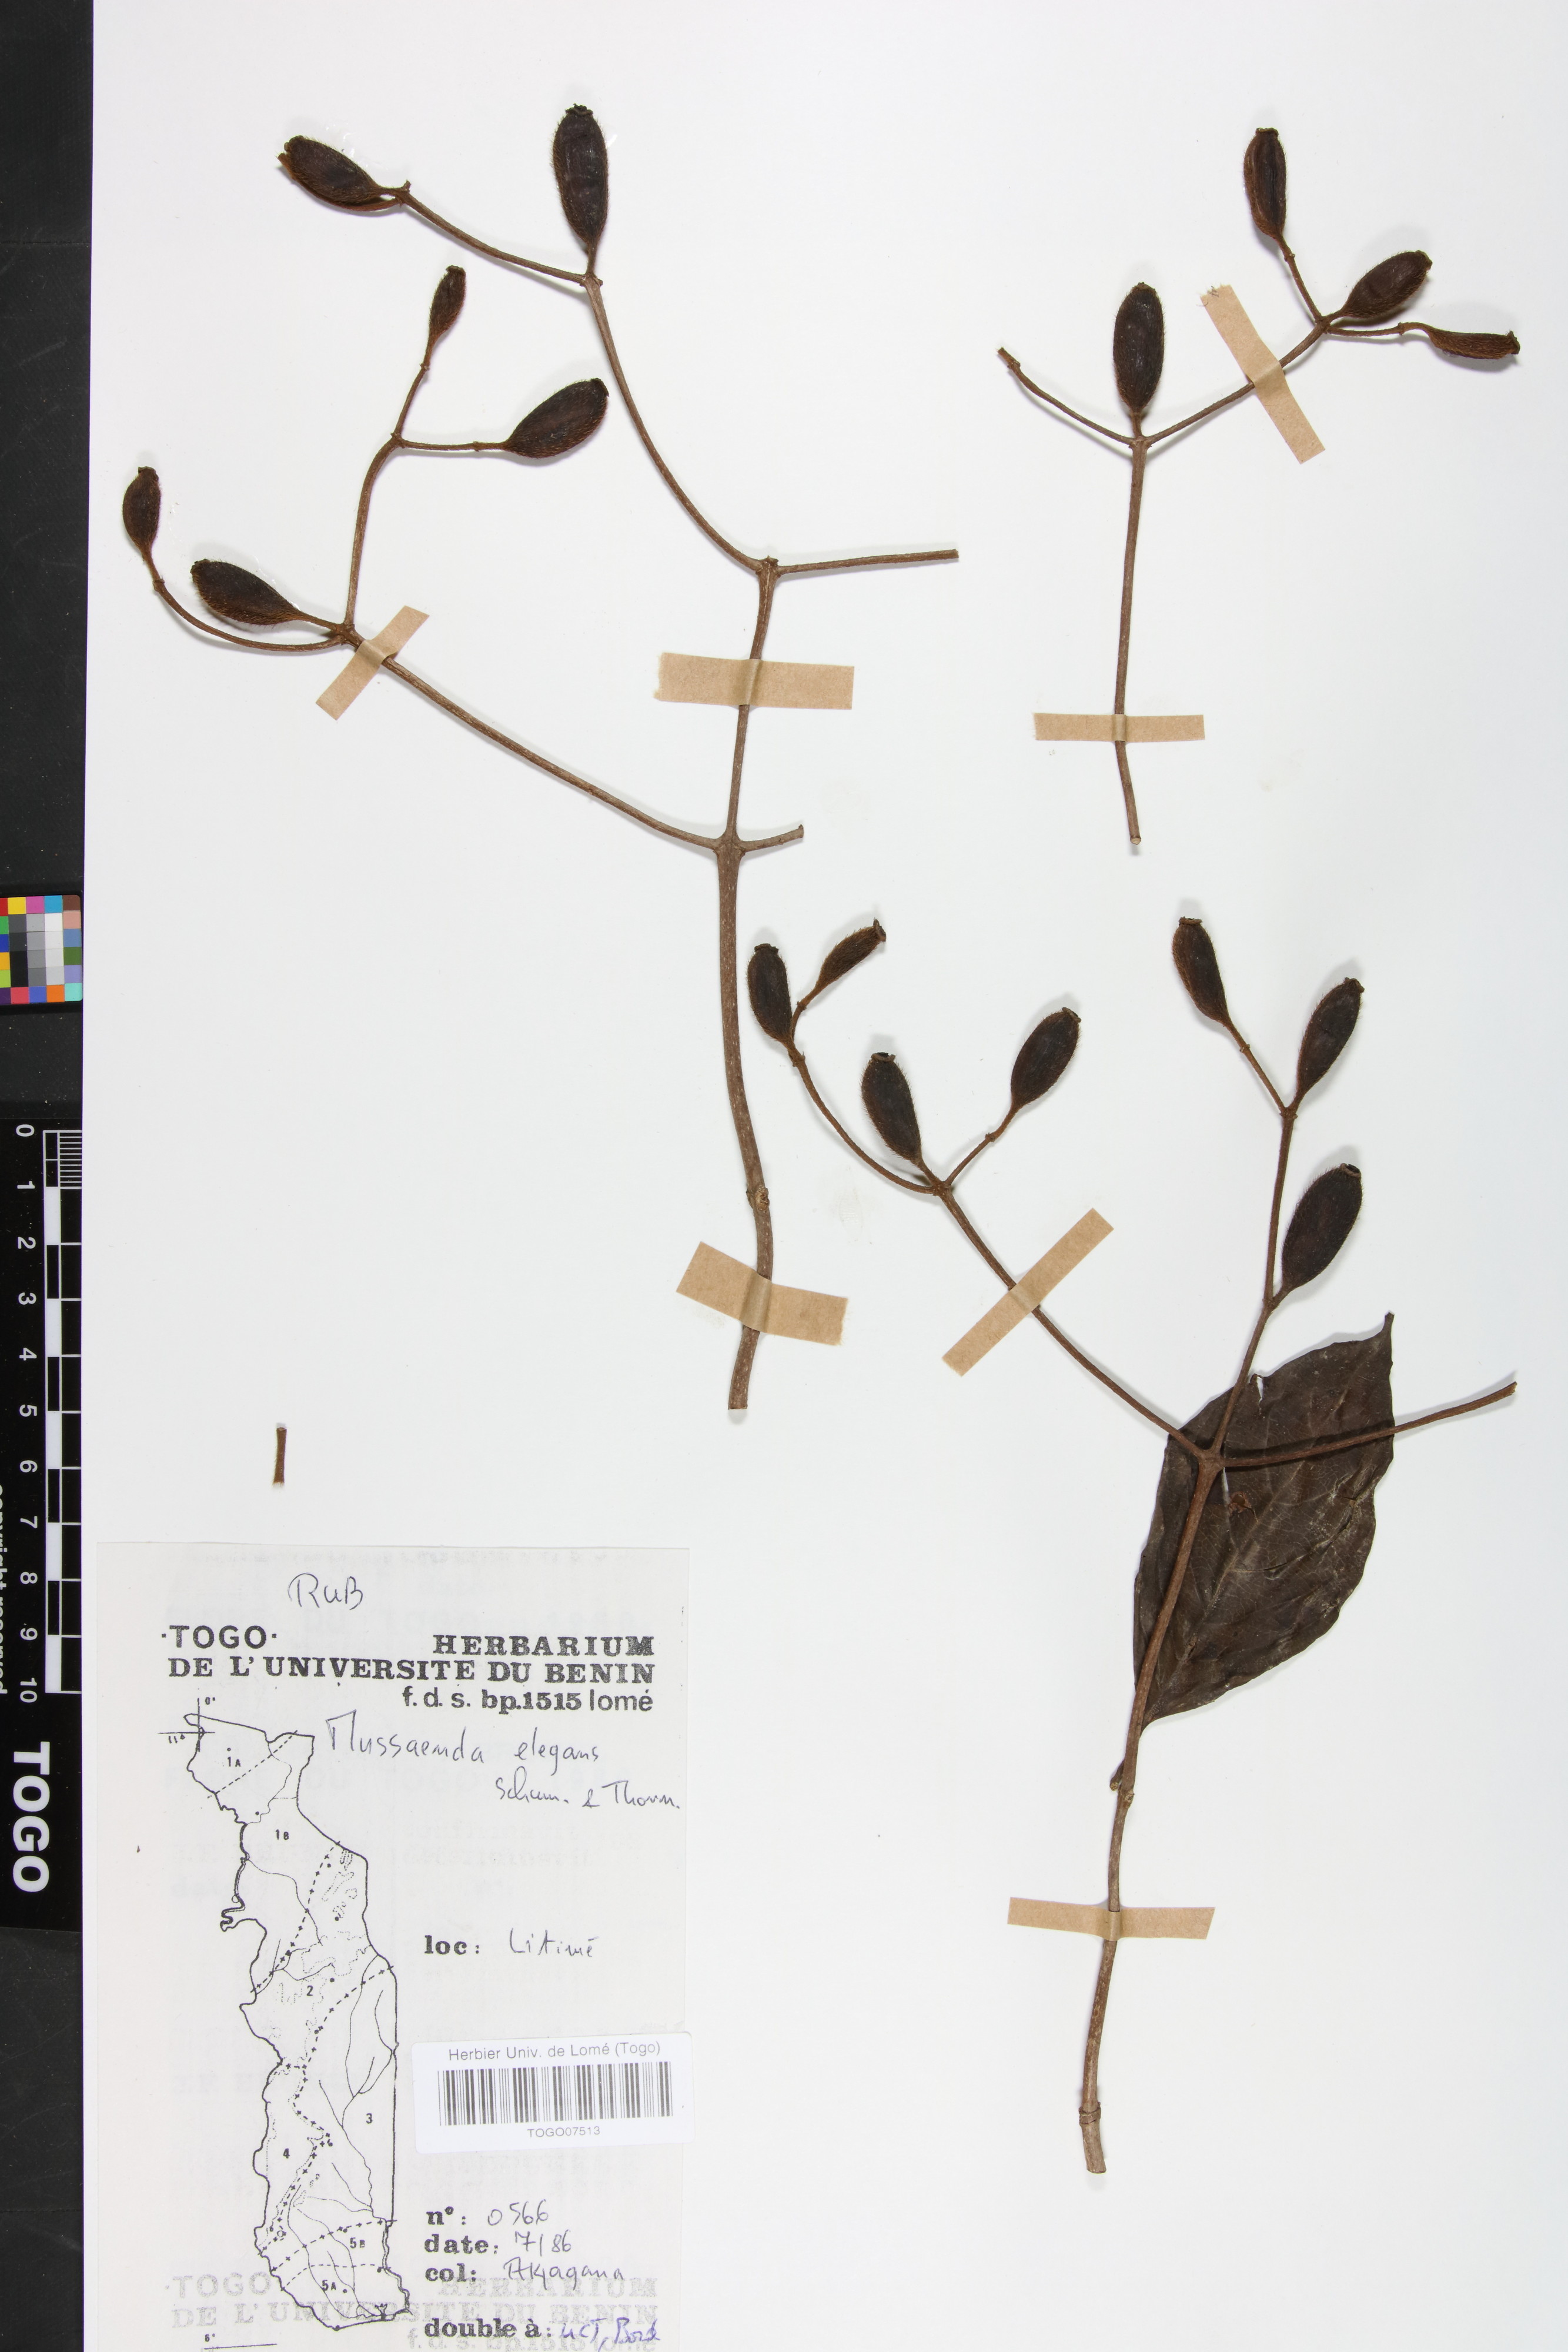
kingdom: Plantae
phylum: Tracheophyta
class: Magnoliopsida
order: Gentianales
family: Rubiaceae
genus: Mussaenda
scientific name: Mussaenda elegans
